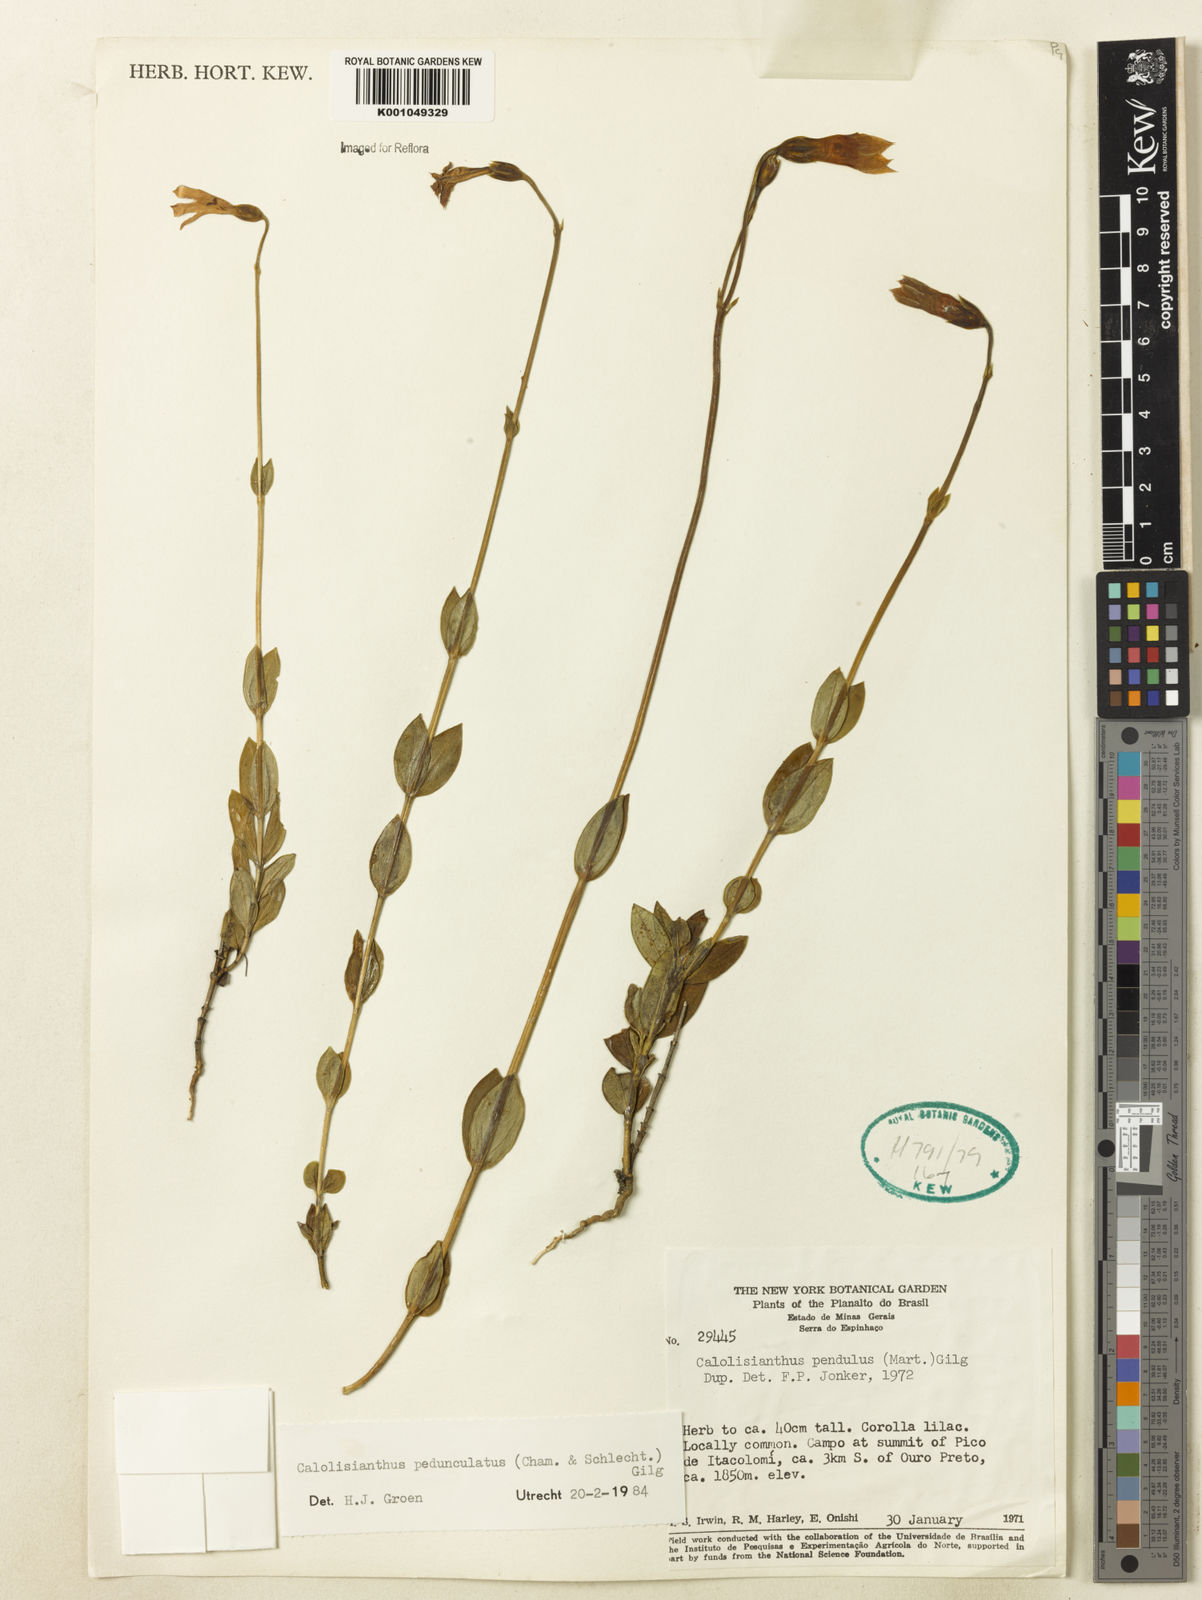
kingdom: Plantae
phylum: Tracheophyta
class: Magnoliopsida
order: Gentianales
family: Gentianaceae
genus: Calolisianthus
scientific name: Calolisianthus
